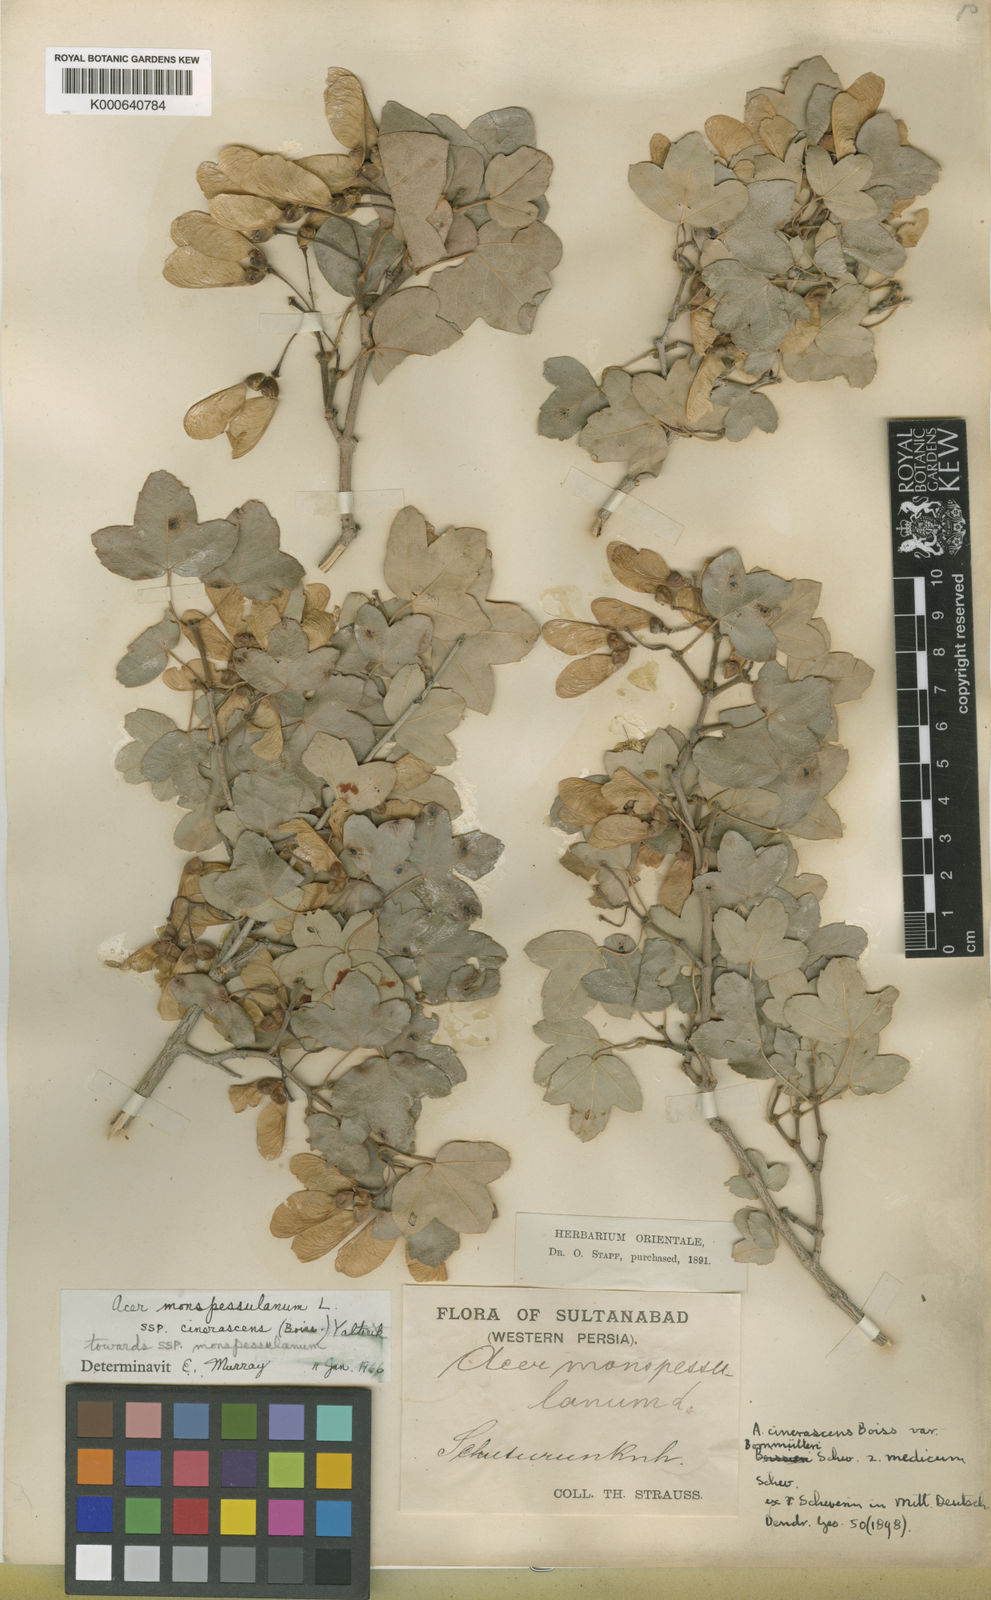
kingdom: Plantae
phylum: Tracheophyta
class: Magnoliopsida
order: Sapindales
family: Sapindaceae
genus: Acer
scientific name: Acer monspessulanum
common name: Montpellier maple
